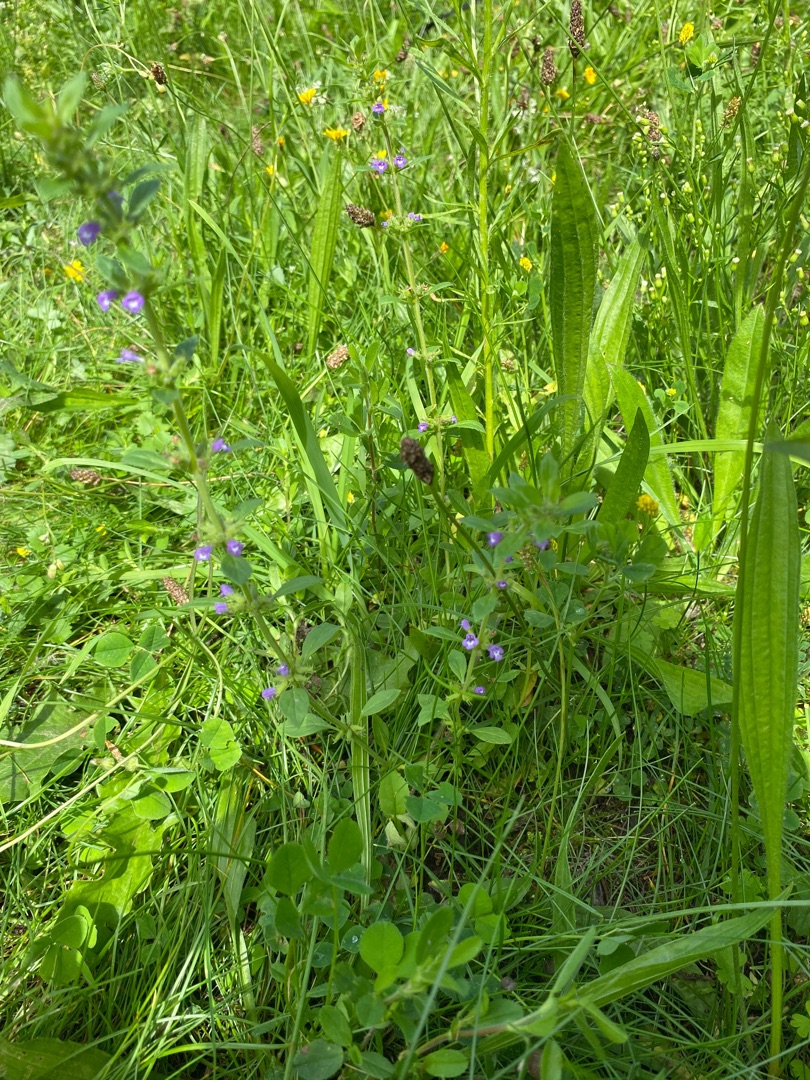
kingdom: Plantae
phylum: Tracheophyta
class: Magnoliopsida
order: Lamiales
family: Lamiaceae
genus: Clinopodium
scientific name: Clinopodium acinos
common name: Voldtimian
